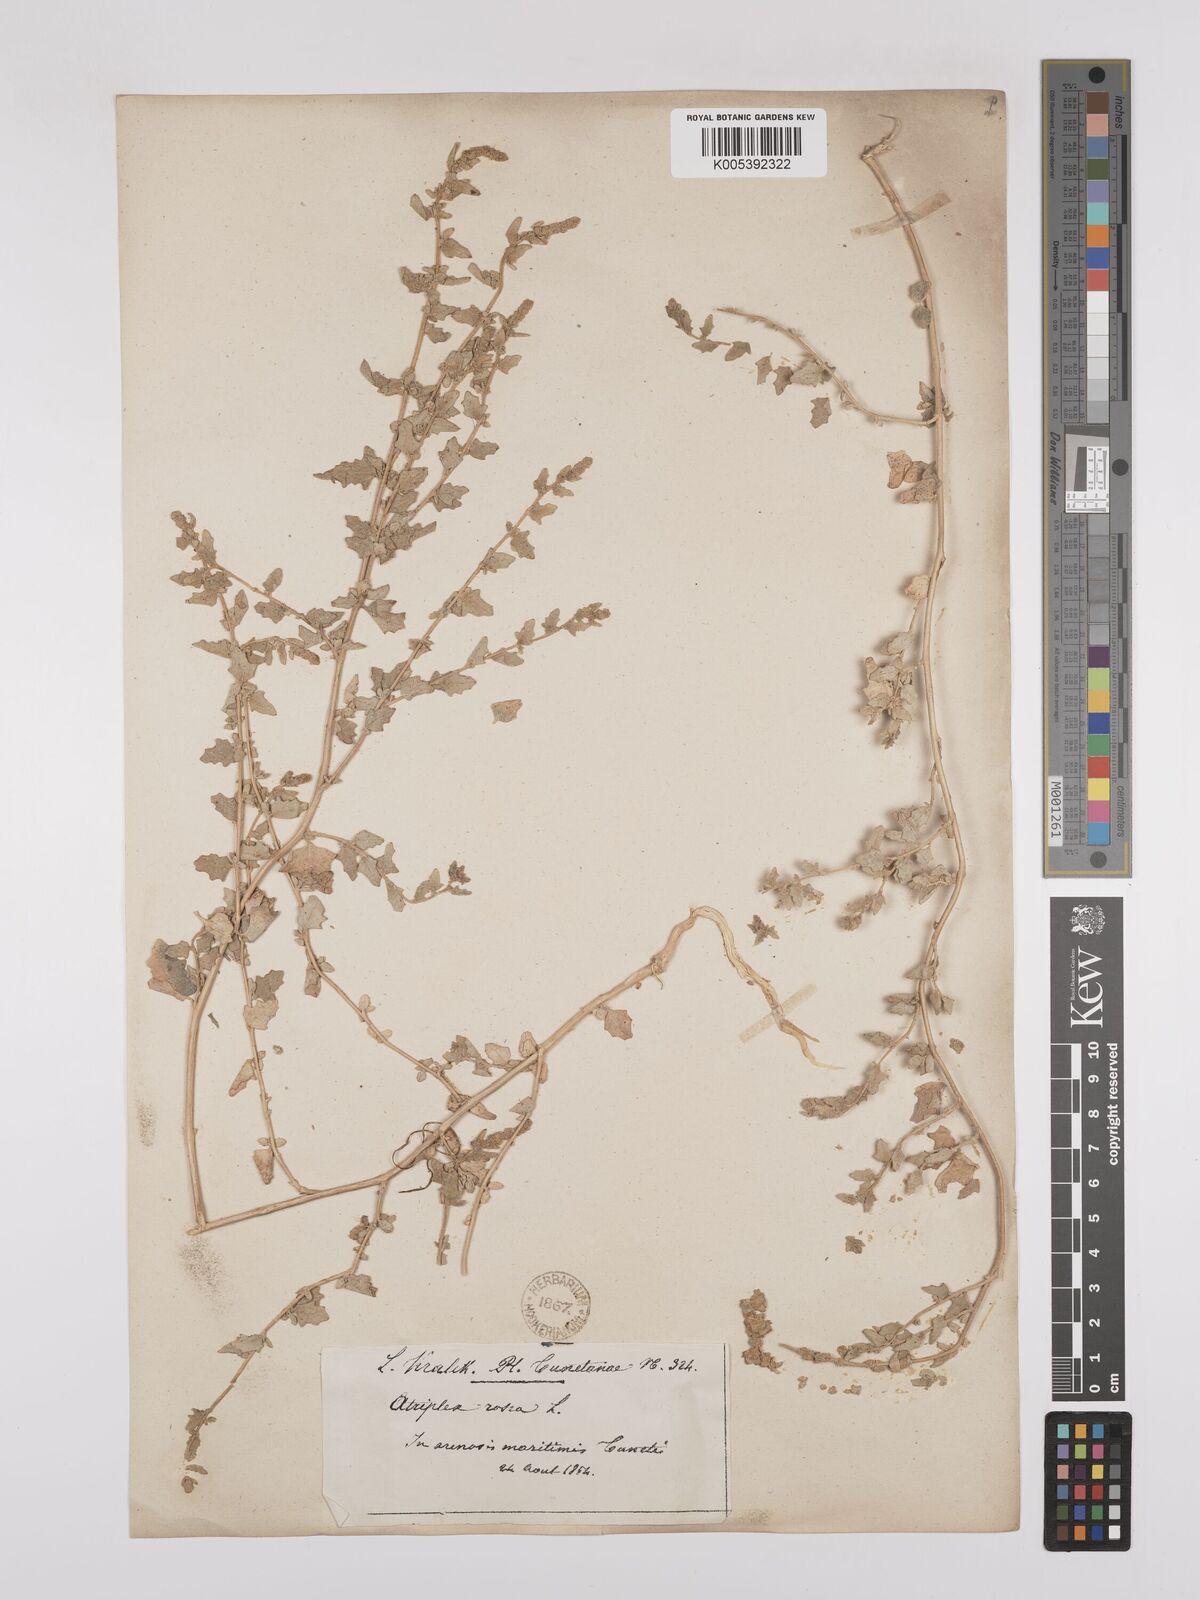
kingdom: Plantae
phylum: Tracheophyta
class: Magnoliopsida
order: Caryophyllales
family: Amaranthaceae
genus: Atriplex
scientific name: Atriplex
